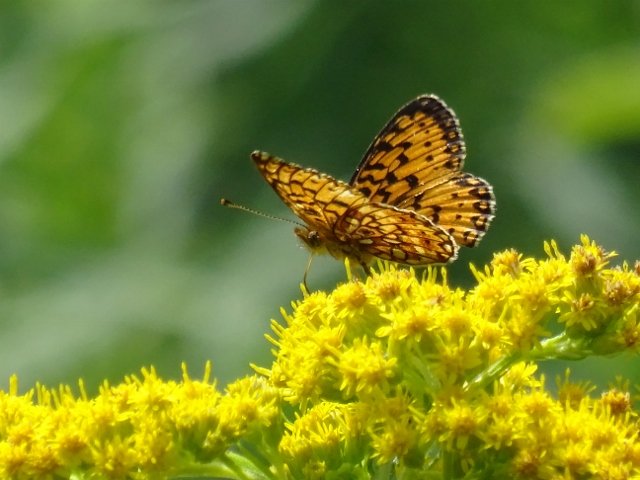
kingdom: Animalia
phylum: Arthropoda
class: Insecta
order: Lepidoptera
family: Nymphalidae
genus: Boloria
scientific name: Boloria selene
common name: Silver-bordered Fritillary
